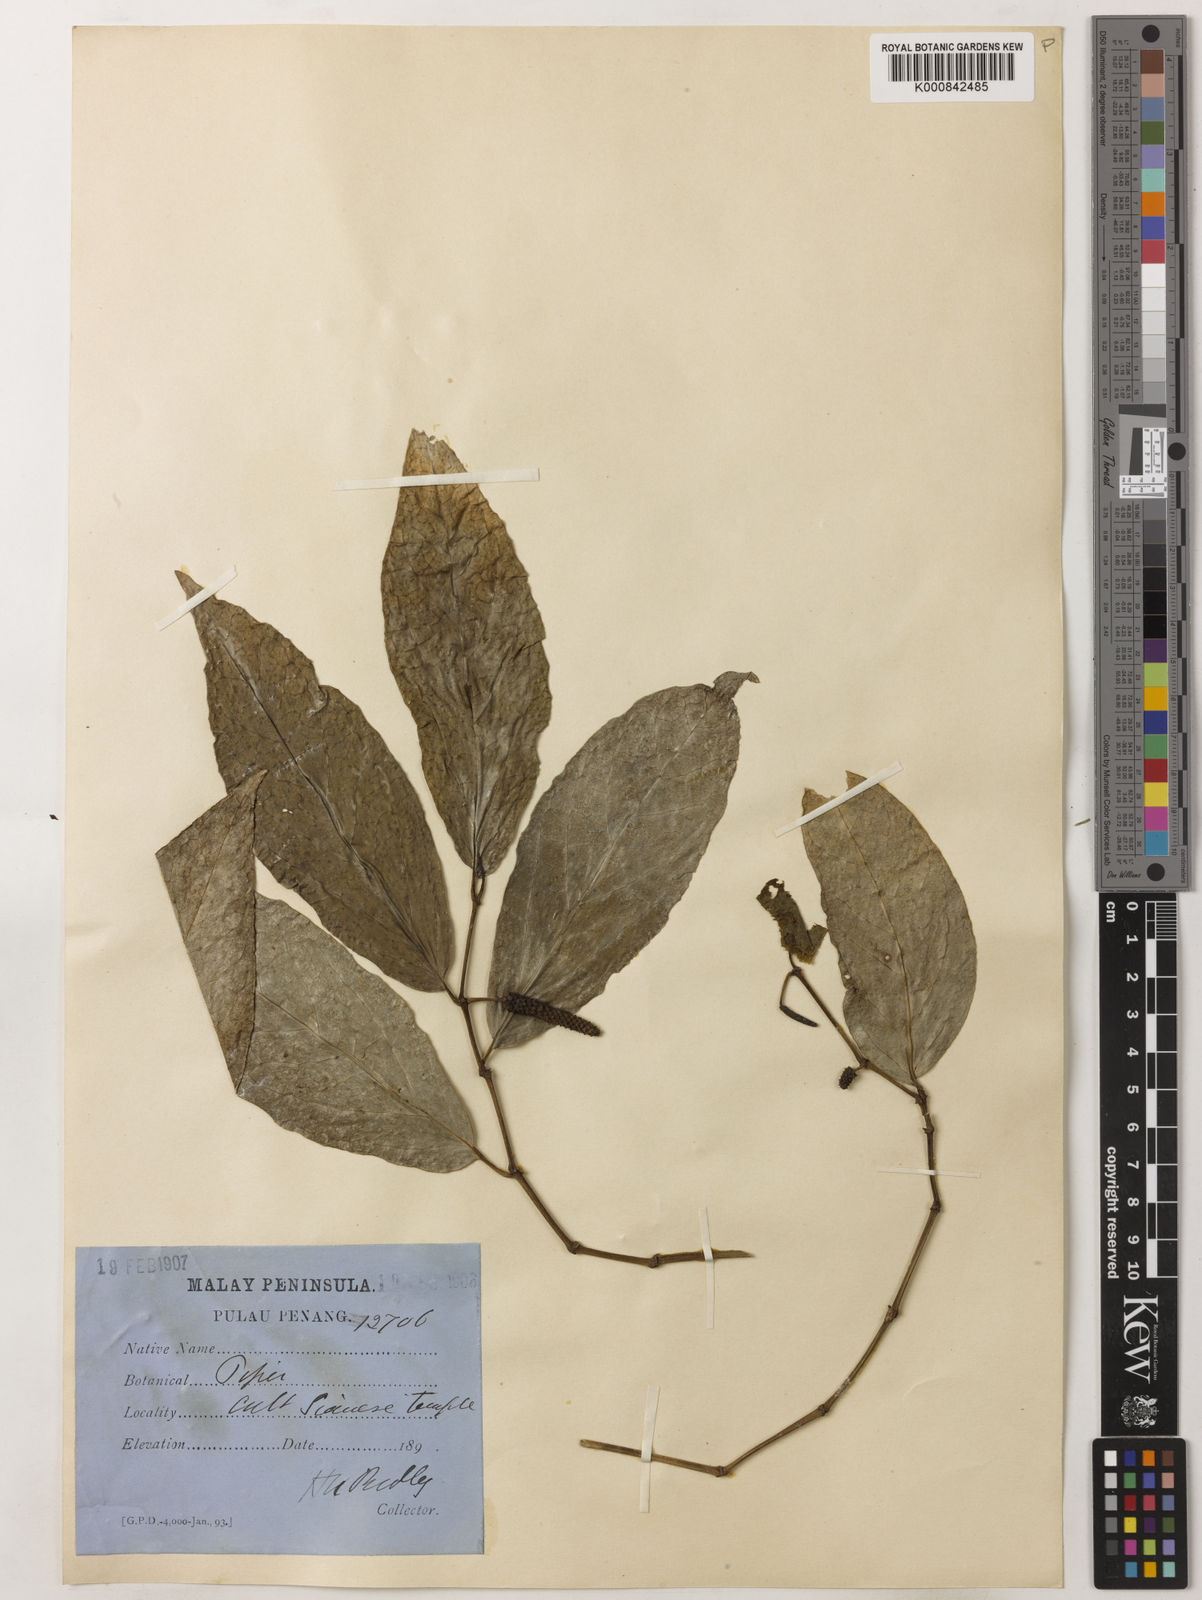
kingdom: Plantae
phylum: Tracheophyta
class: Magnoliopsida
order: Piperales
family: Piperaceae
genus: Piper
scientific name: Piper longum
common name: Long pepper
